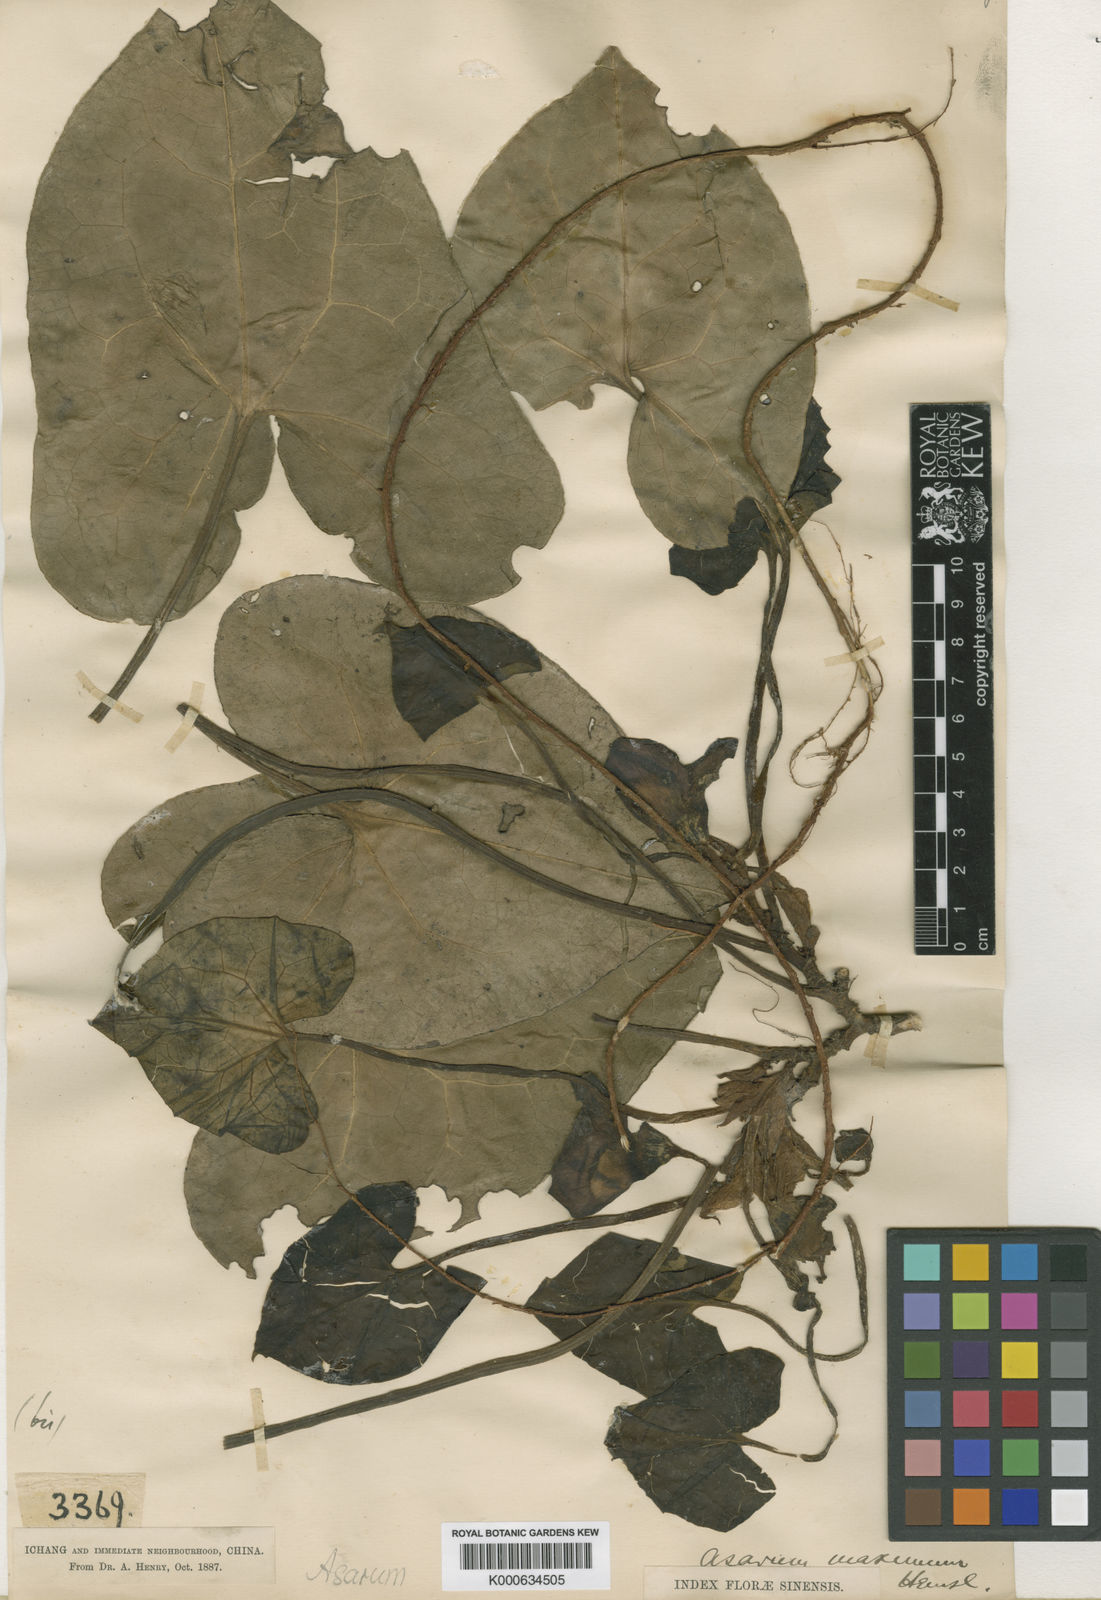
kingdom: Plantae
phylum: Tracheophyta
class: Magnoliopsida
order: Piperales
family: Aristolochiaceae
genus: Asarum
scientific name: Asarum maximum
